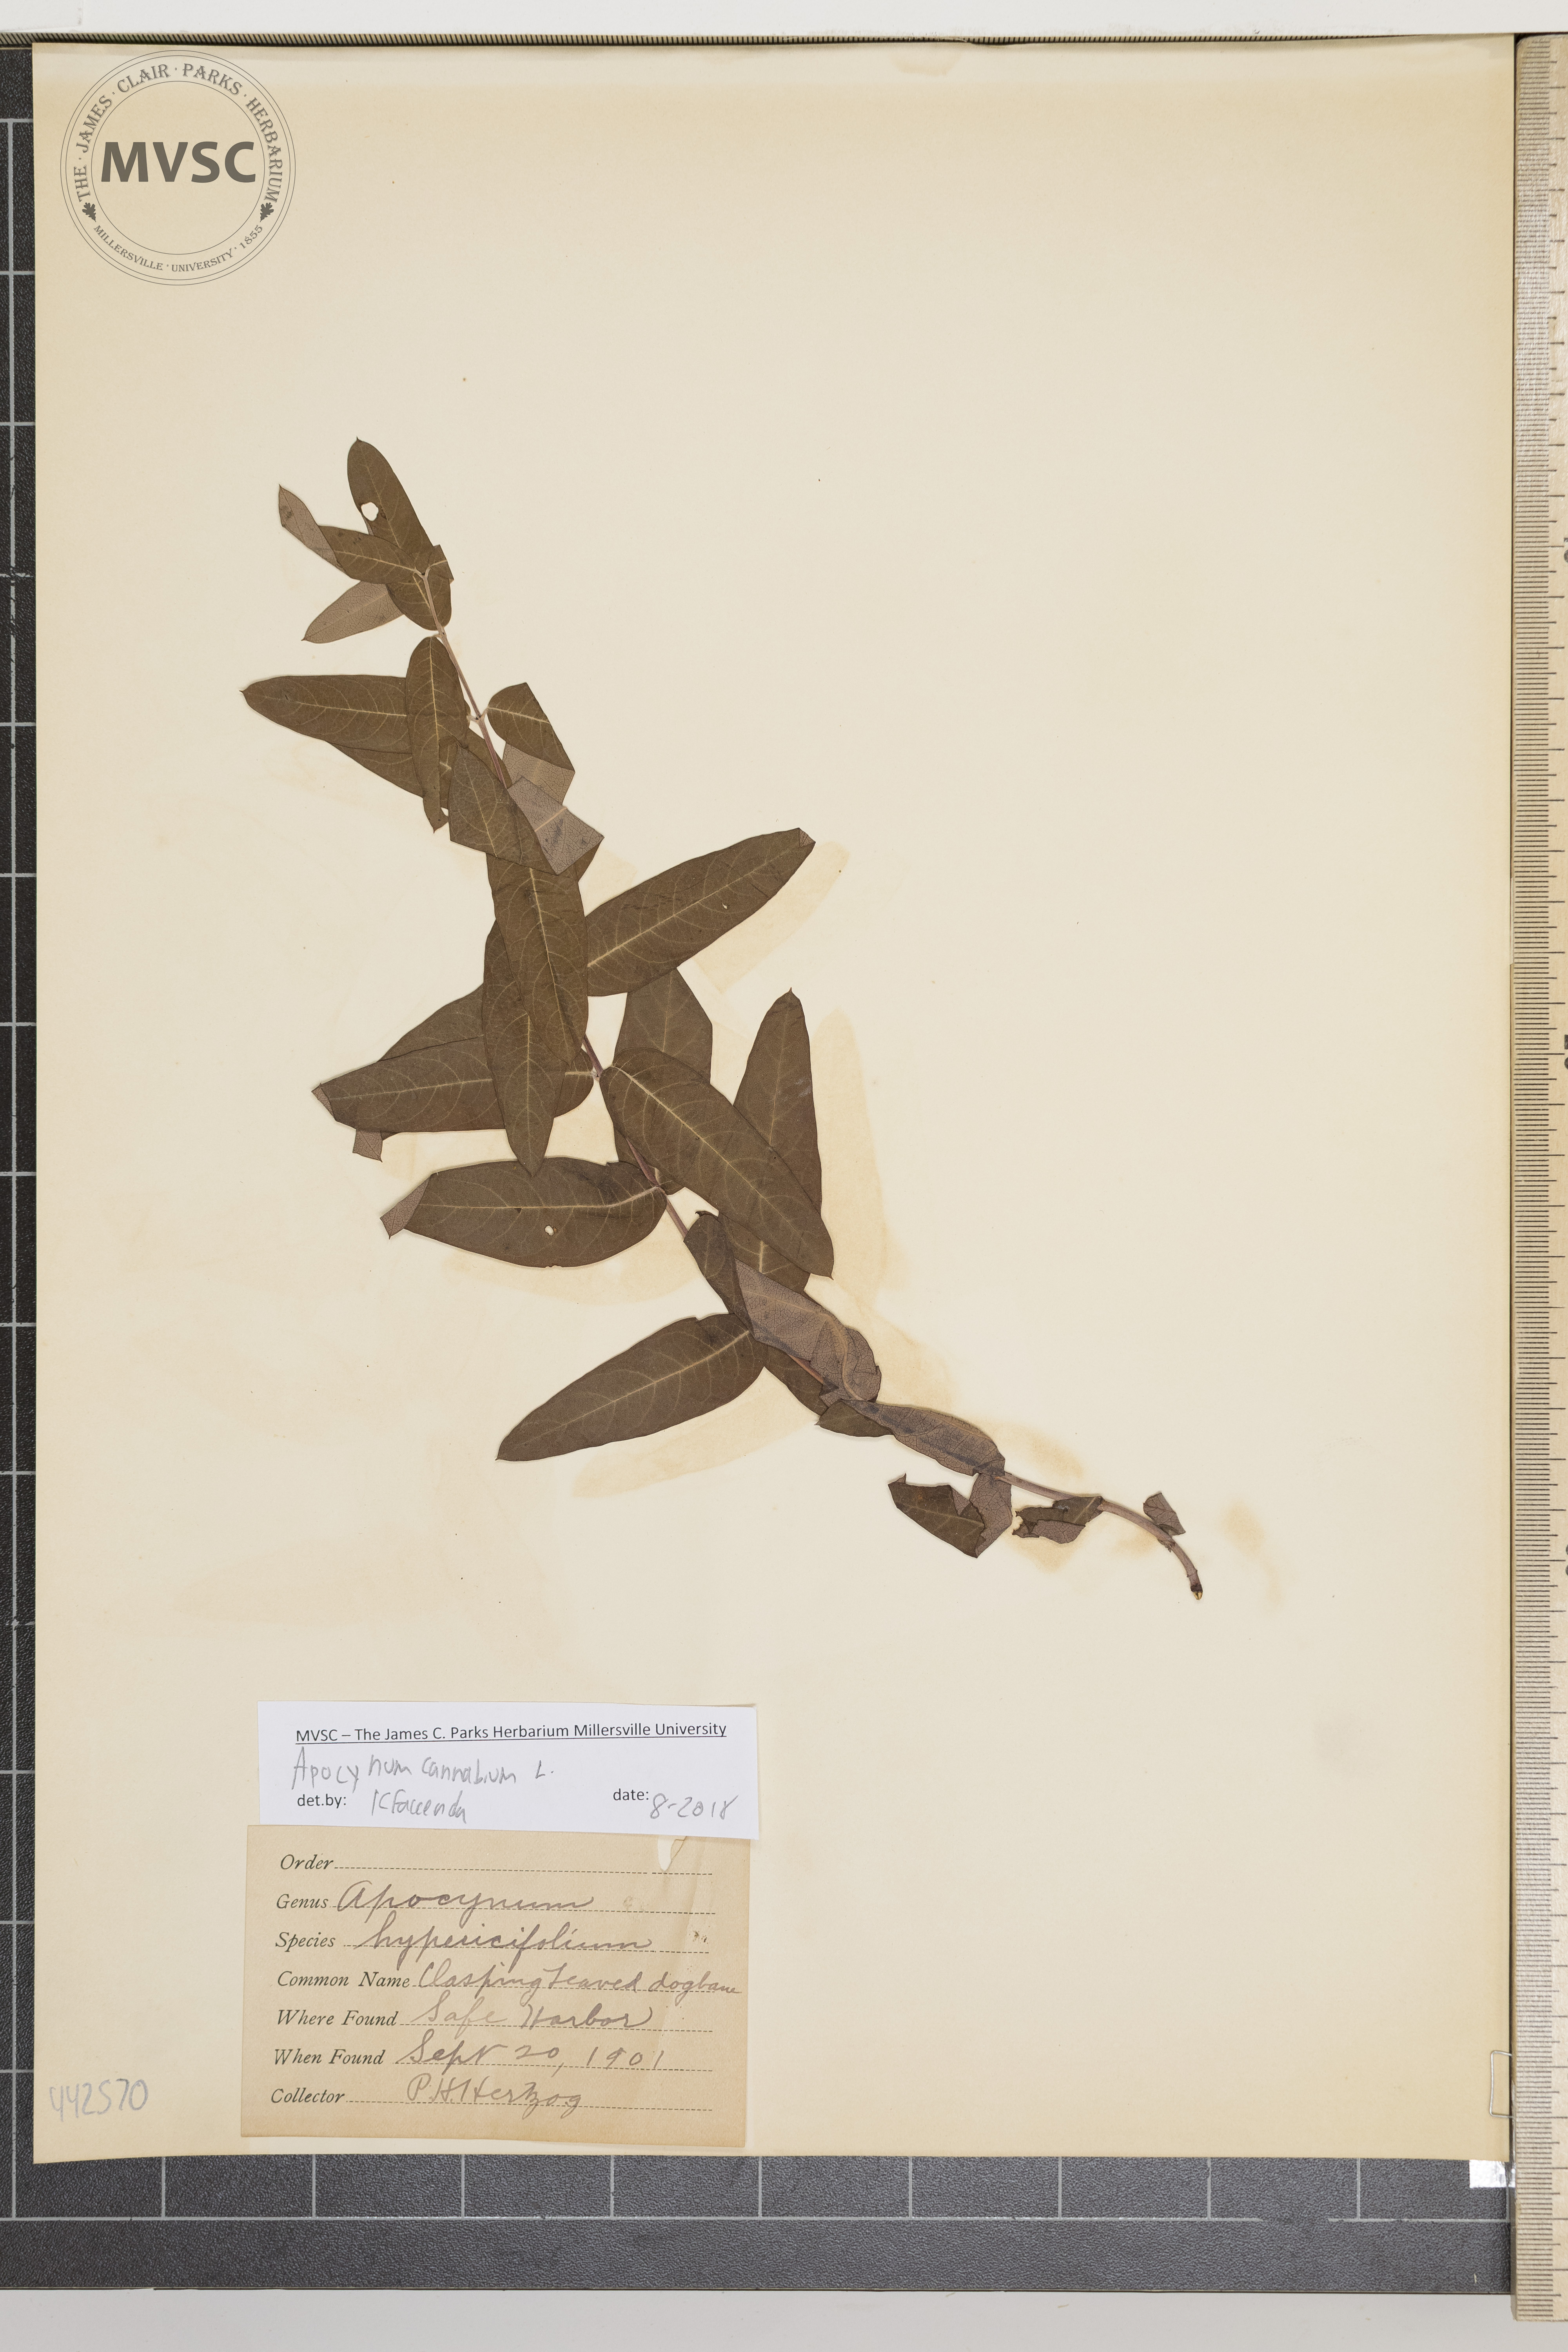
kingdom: Plantae
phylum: Tracheophyta
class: Magnoliopsida
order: Gentianales
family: Apocynaceae
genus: Apocynum
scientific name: Apocynum cannabinum
